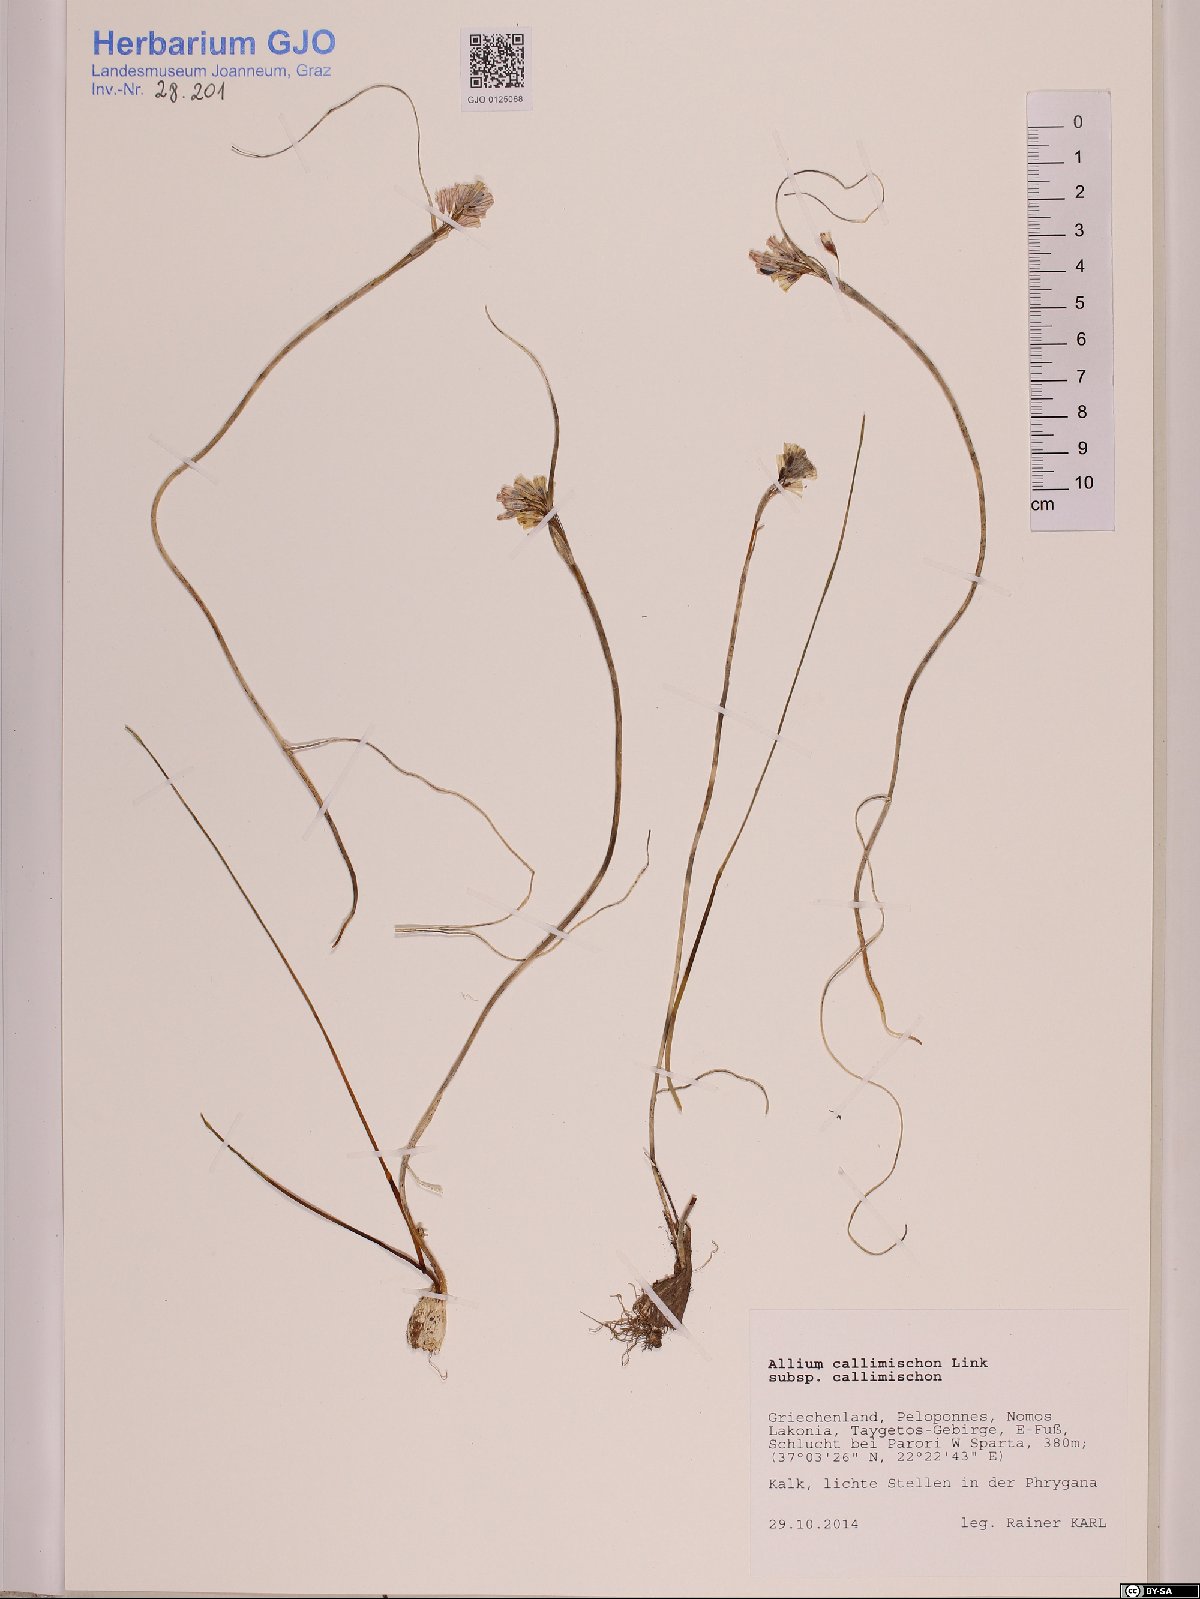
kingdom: Plantae
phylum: Tracheophyta
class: Liliopsida
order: Asparagales
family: Amaryllidaceae
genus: Allium
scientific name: Allium callimischon
